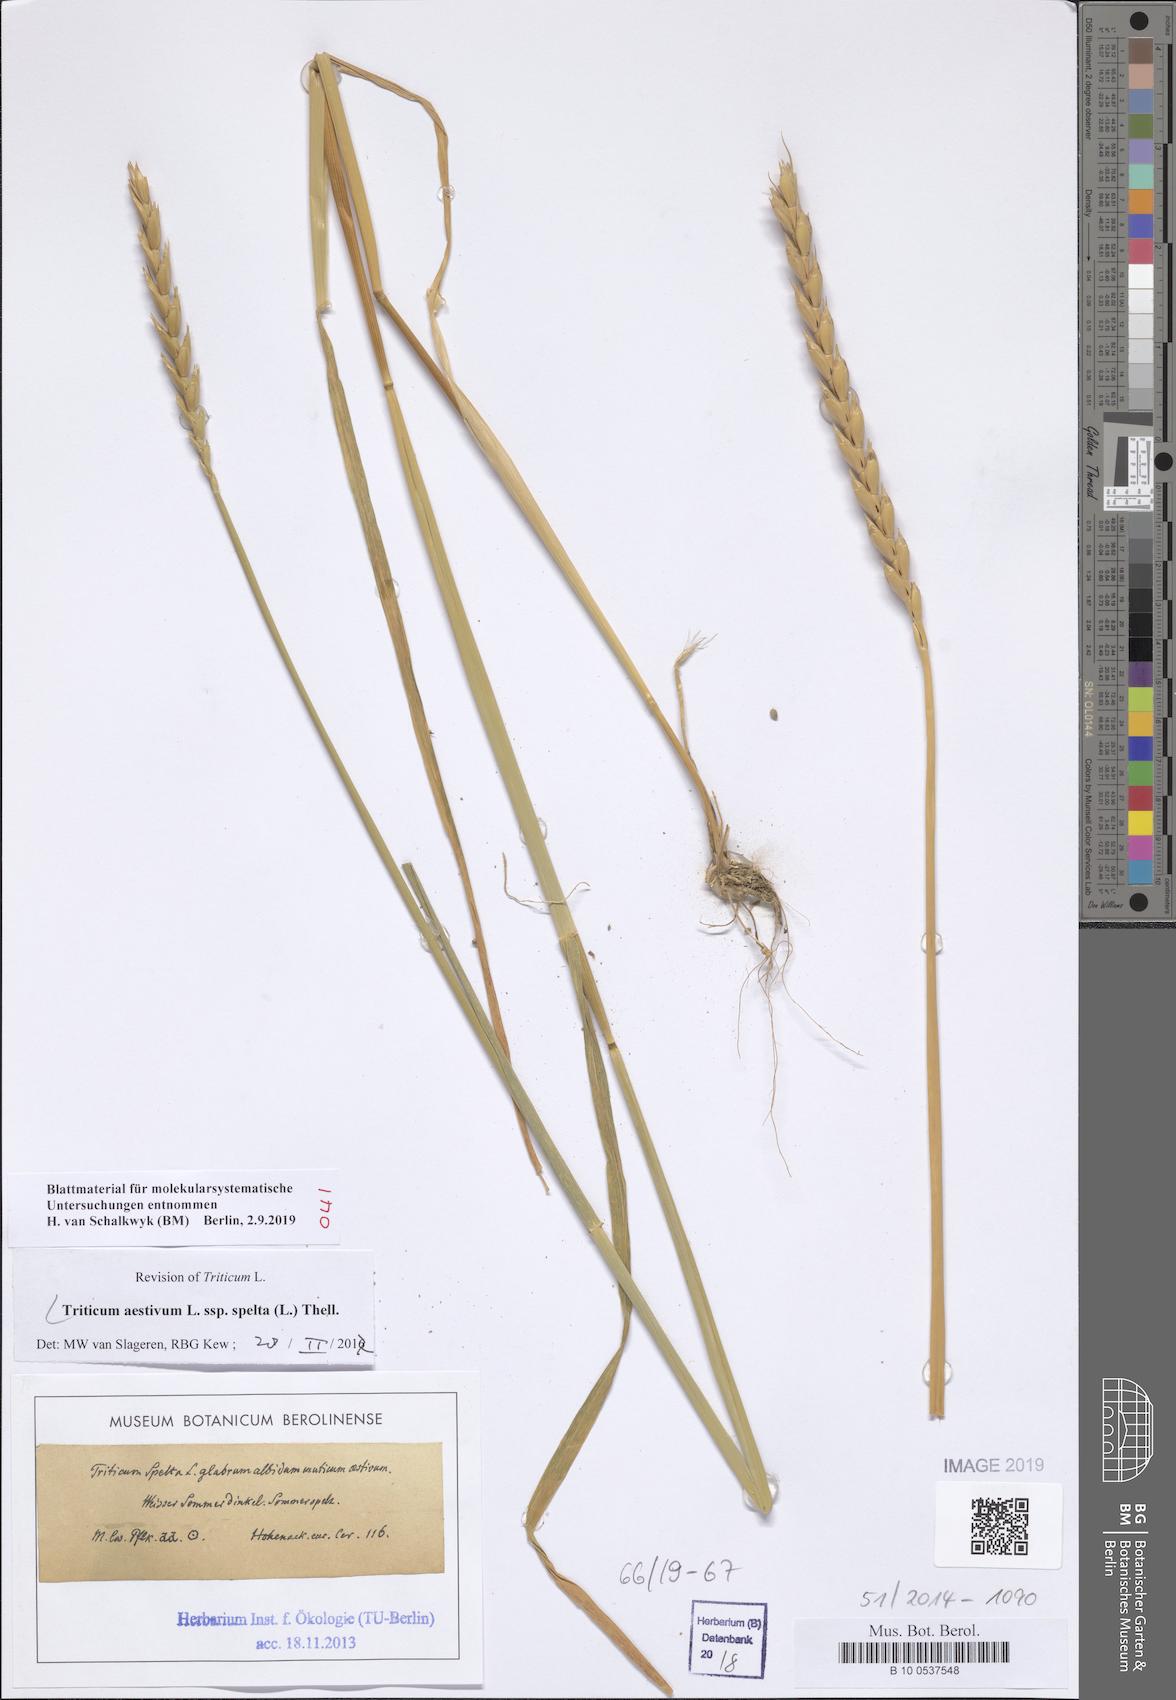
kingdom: Plantae
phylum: Tracheophyta
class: Liliopsida
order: Poales
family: Poaceae
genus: Triticum
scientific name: Triticum aestivum
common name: Common wheat
